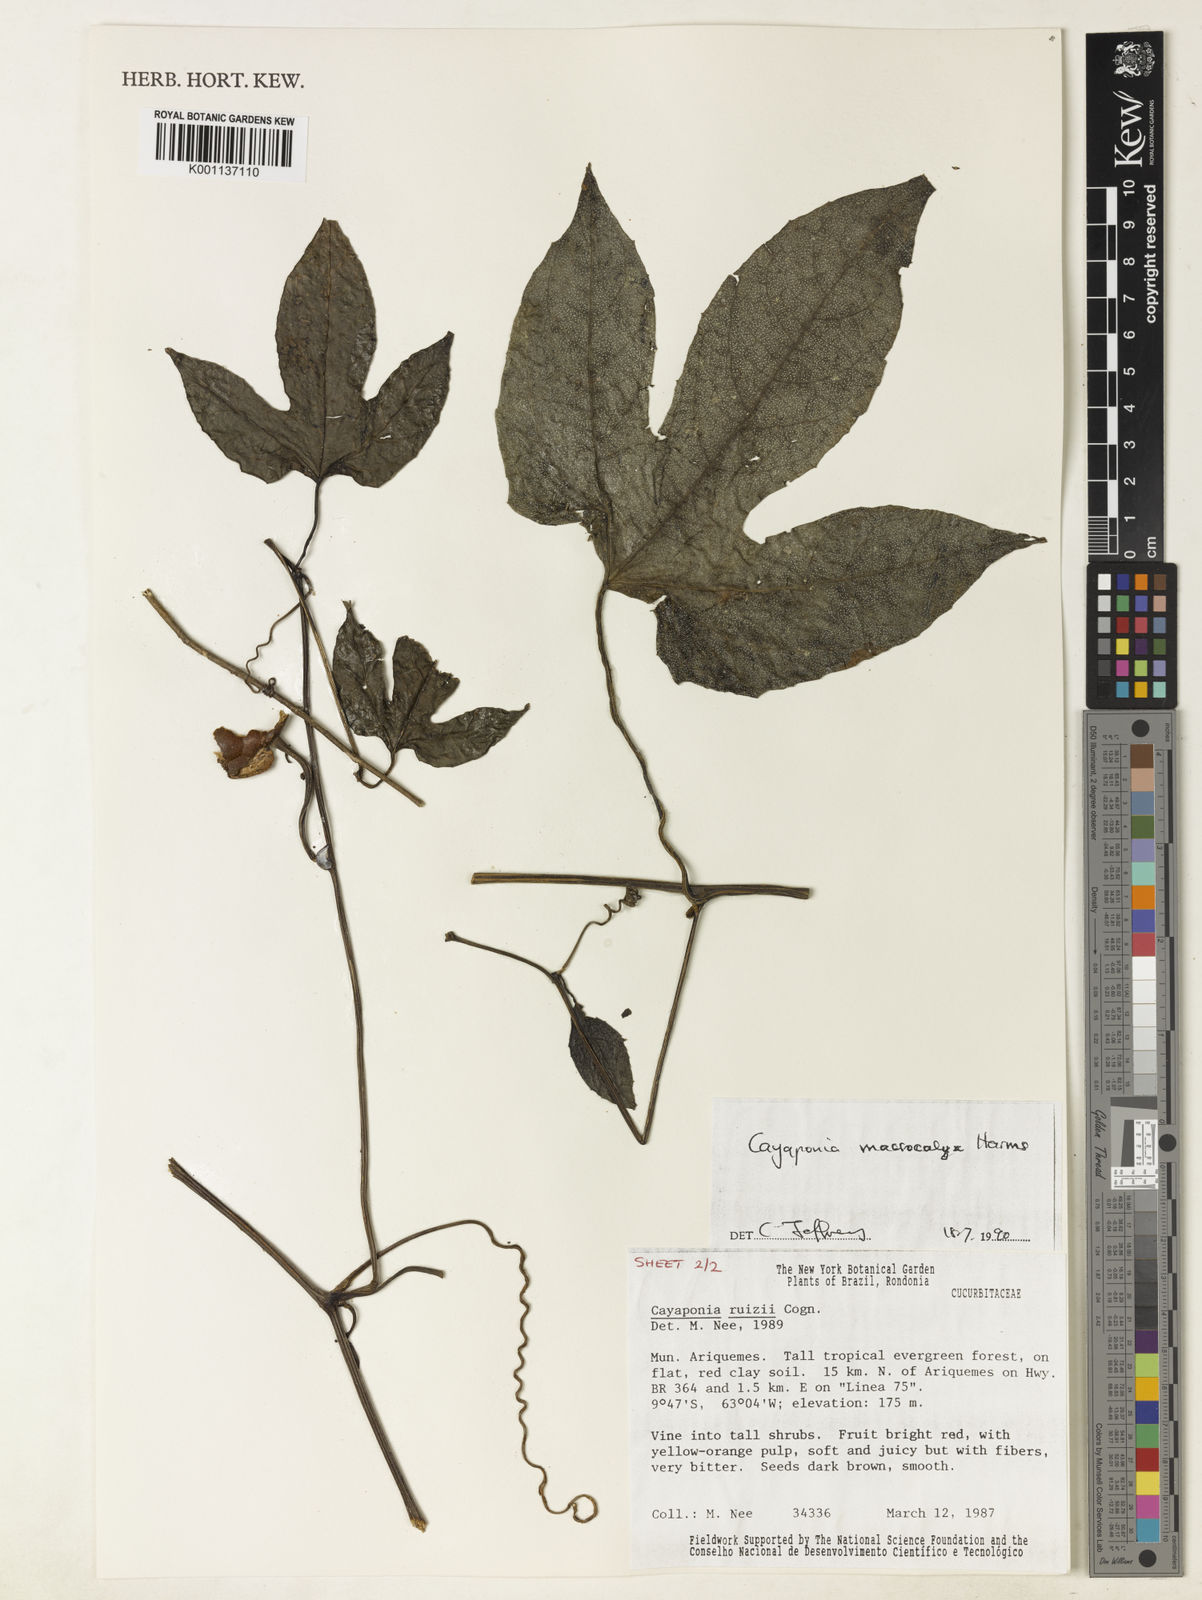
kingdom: Plantae
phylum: Tracheophyta
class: Magnoliopsida
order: Cucurbitales
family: Cucurbitaceae
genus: Cayaponia
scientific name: Cayaponia macrocalyx
